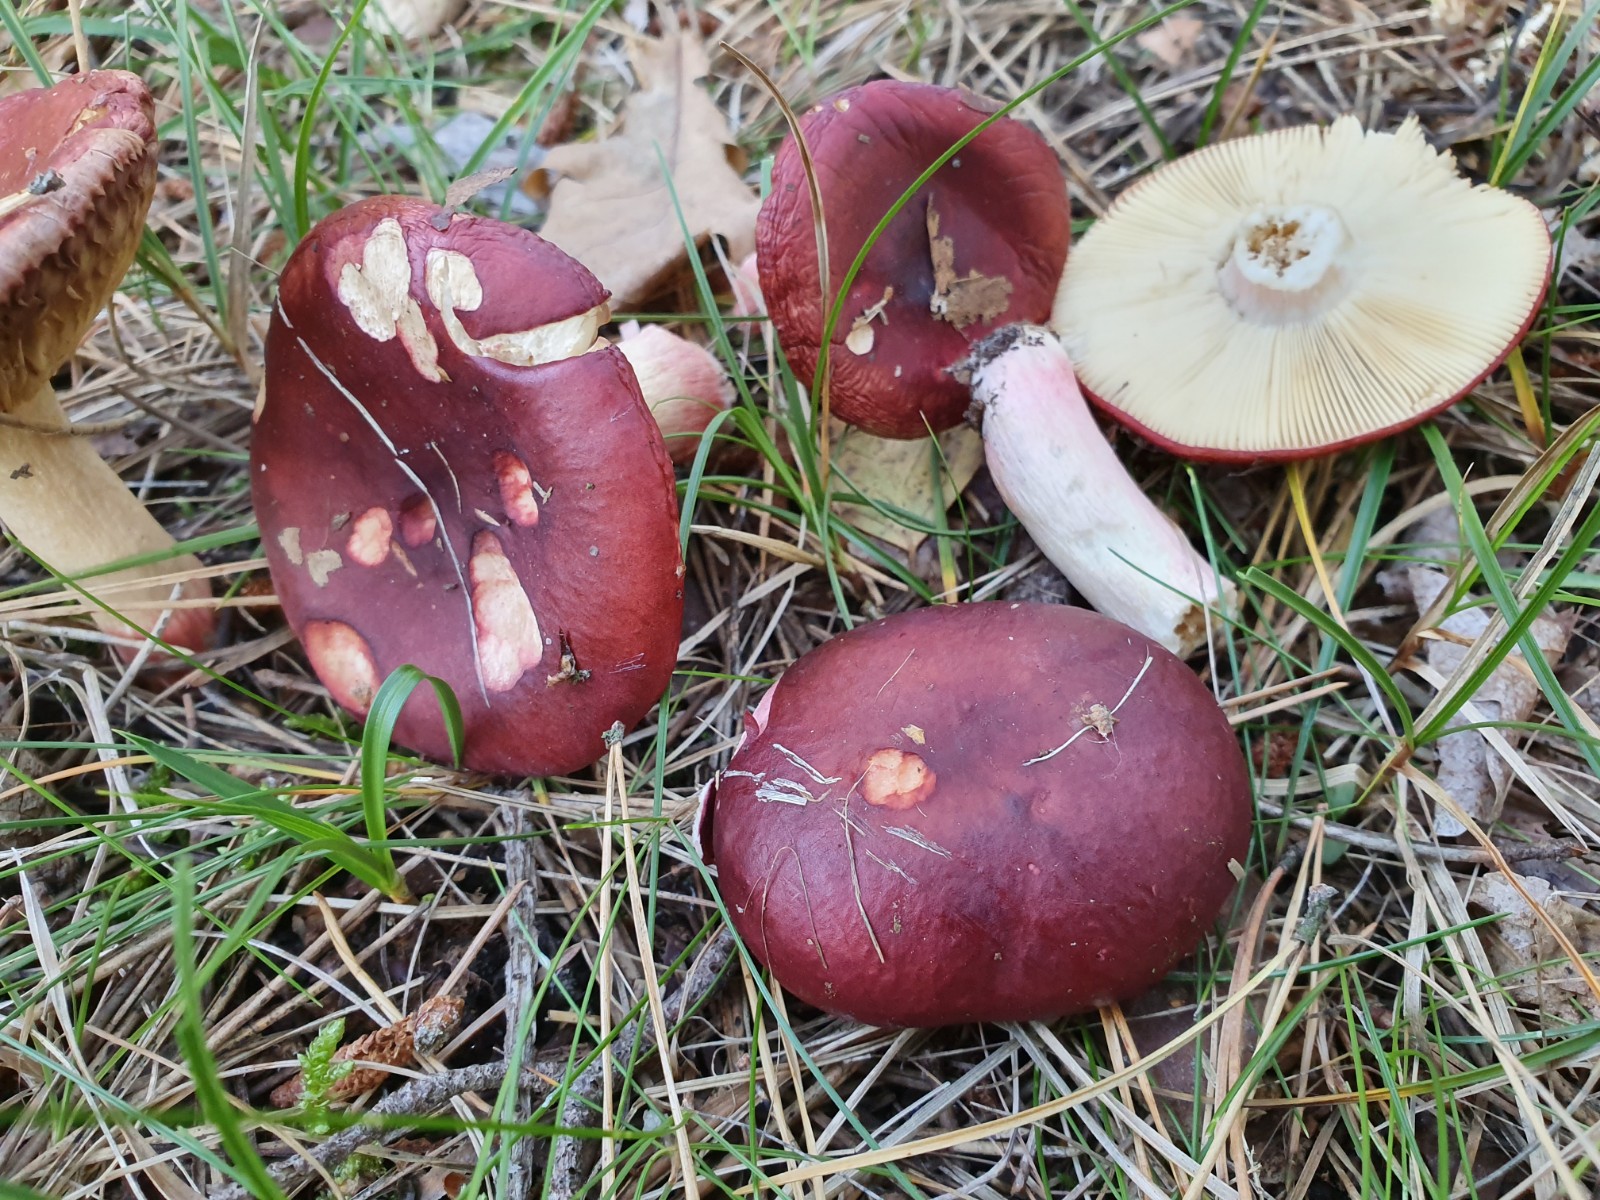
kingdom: Fungi
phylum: Basidiomycota
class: Agaricomycetes
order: Russulales
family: Russulaceae
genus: Russula
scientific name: Russula xerampelina
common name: hummer-skørhat
